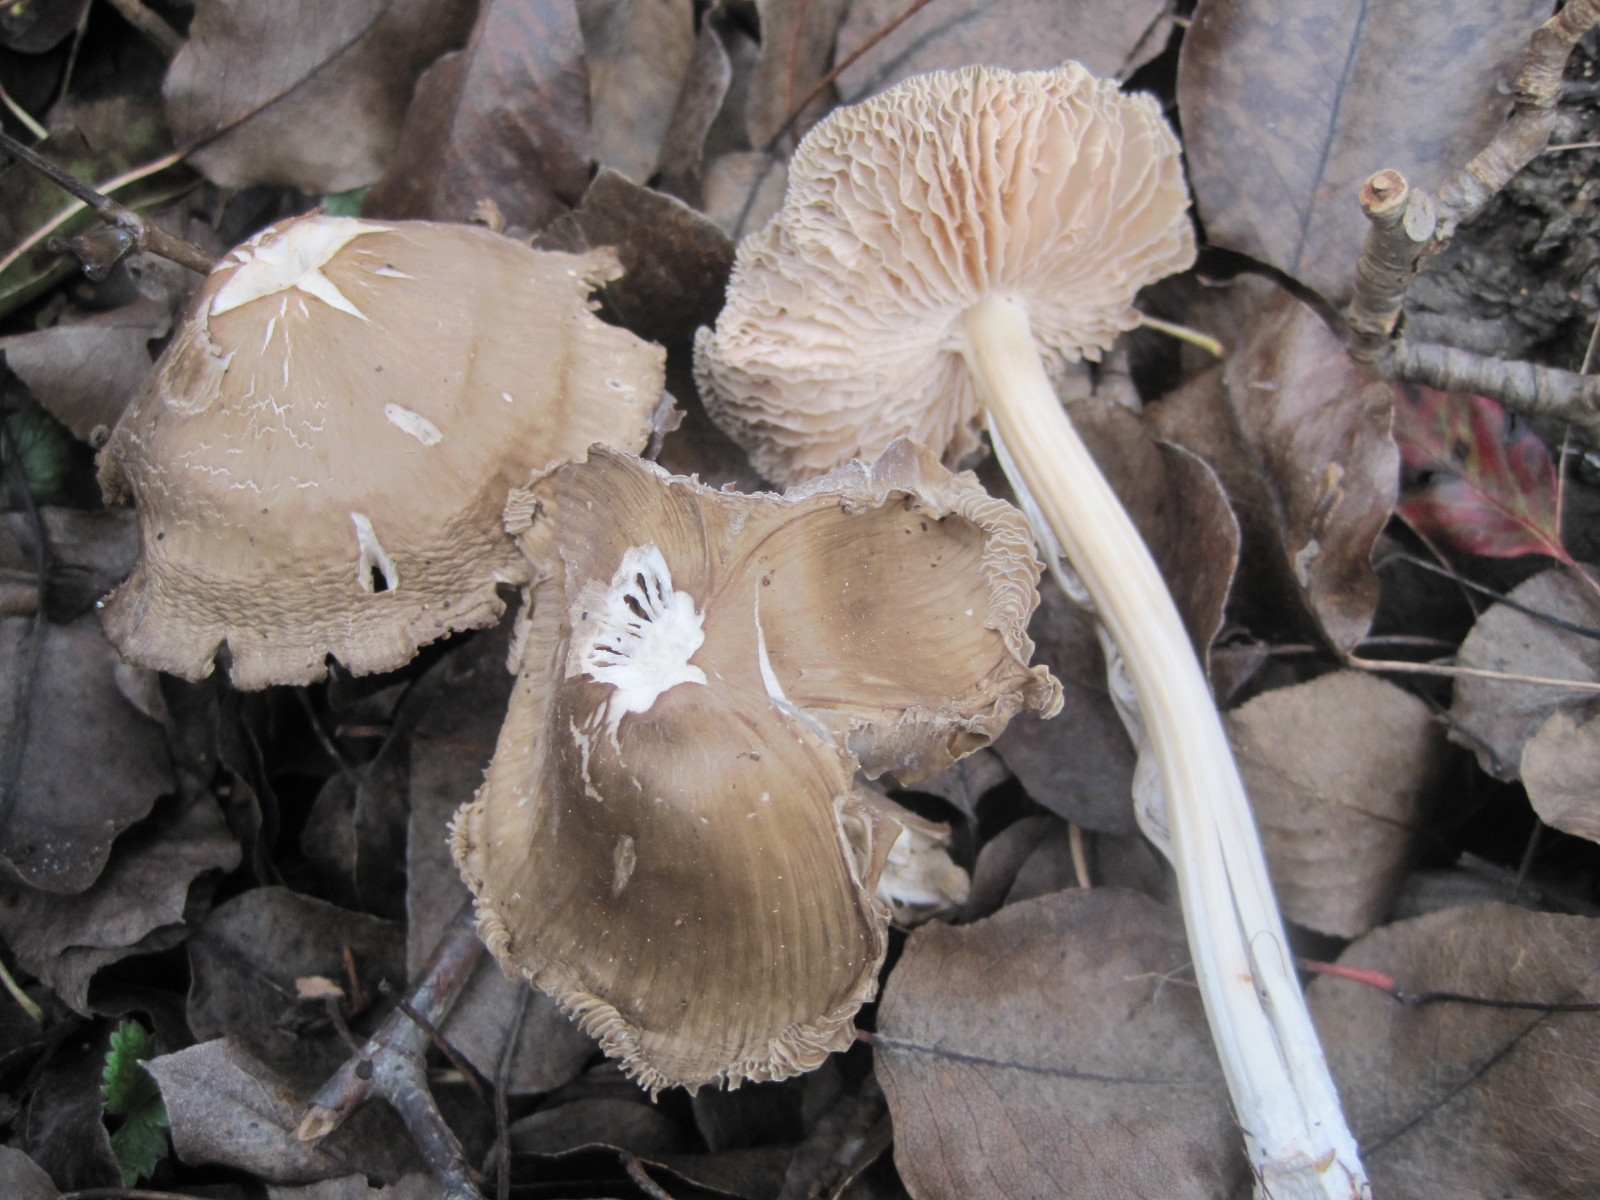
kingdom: Fungi
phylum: Basidiomycota
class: Agaricomycetes
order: Agaricales
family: Mycenaceae
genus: Mycena
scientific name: Mycena galericulata
